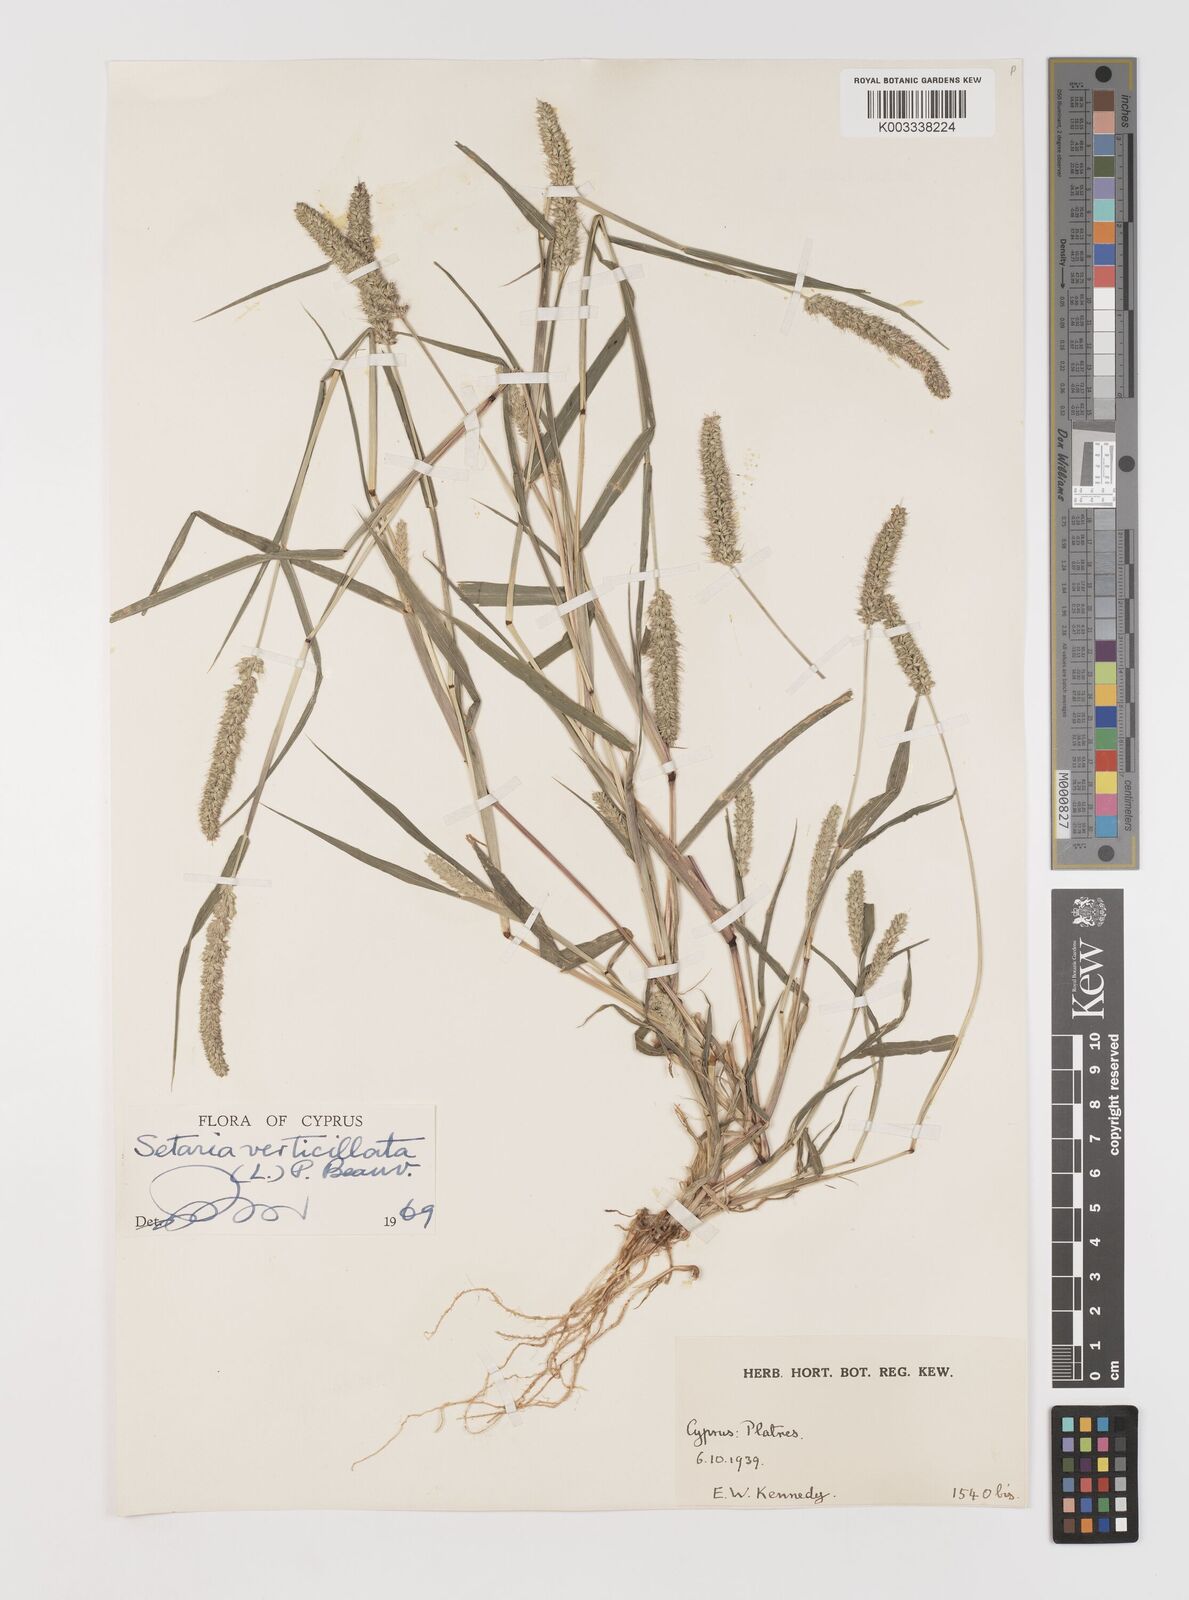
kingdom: Plantae
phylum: Tracheophyta
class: Liliopsida
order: Poales
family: Poaceae
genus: Setaria
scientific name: Setaria verticillata
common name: Hooked bristlegrass
